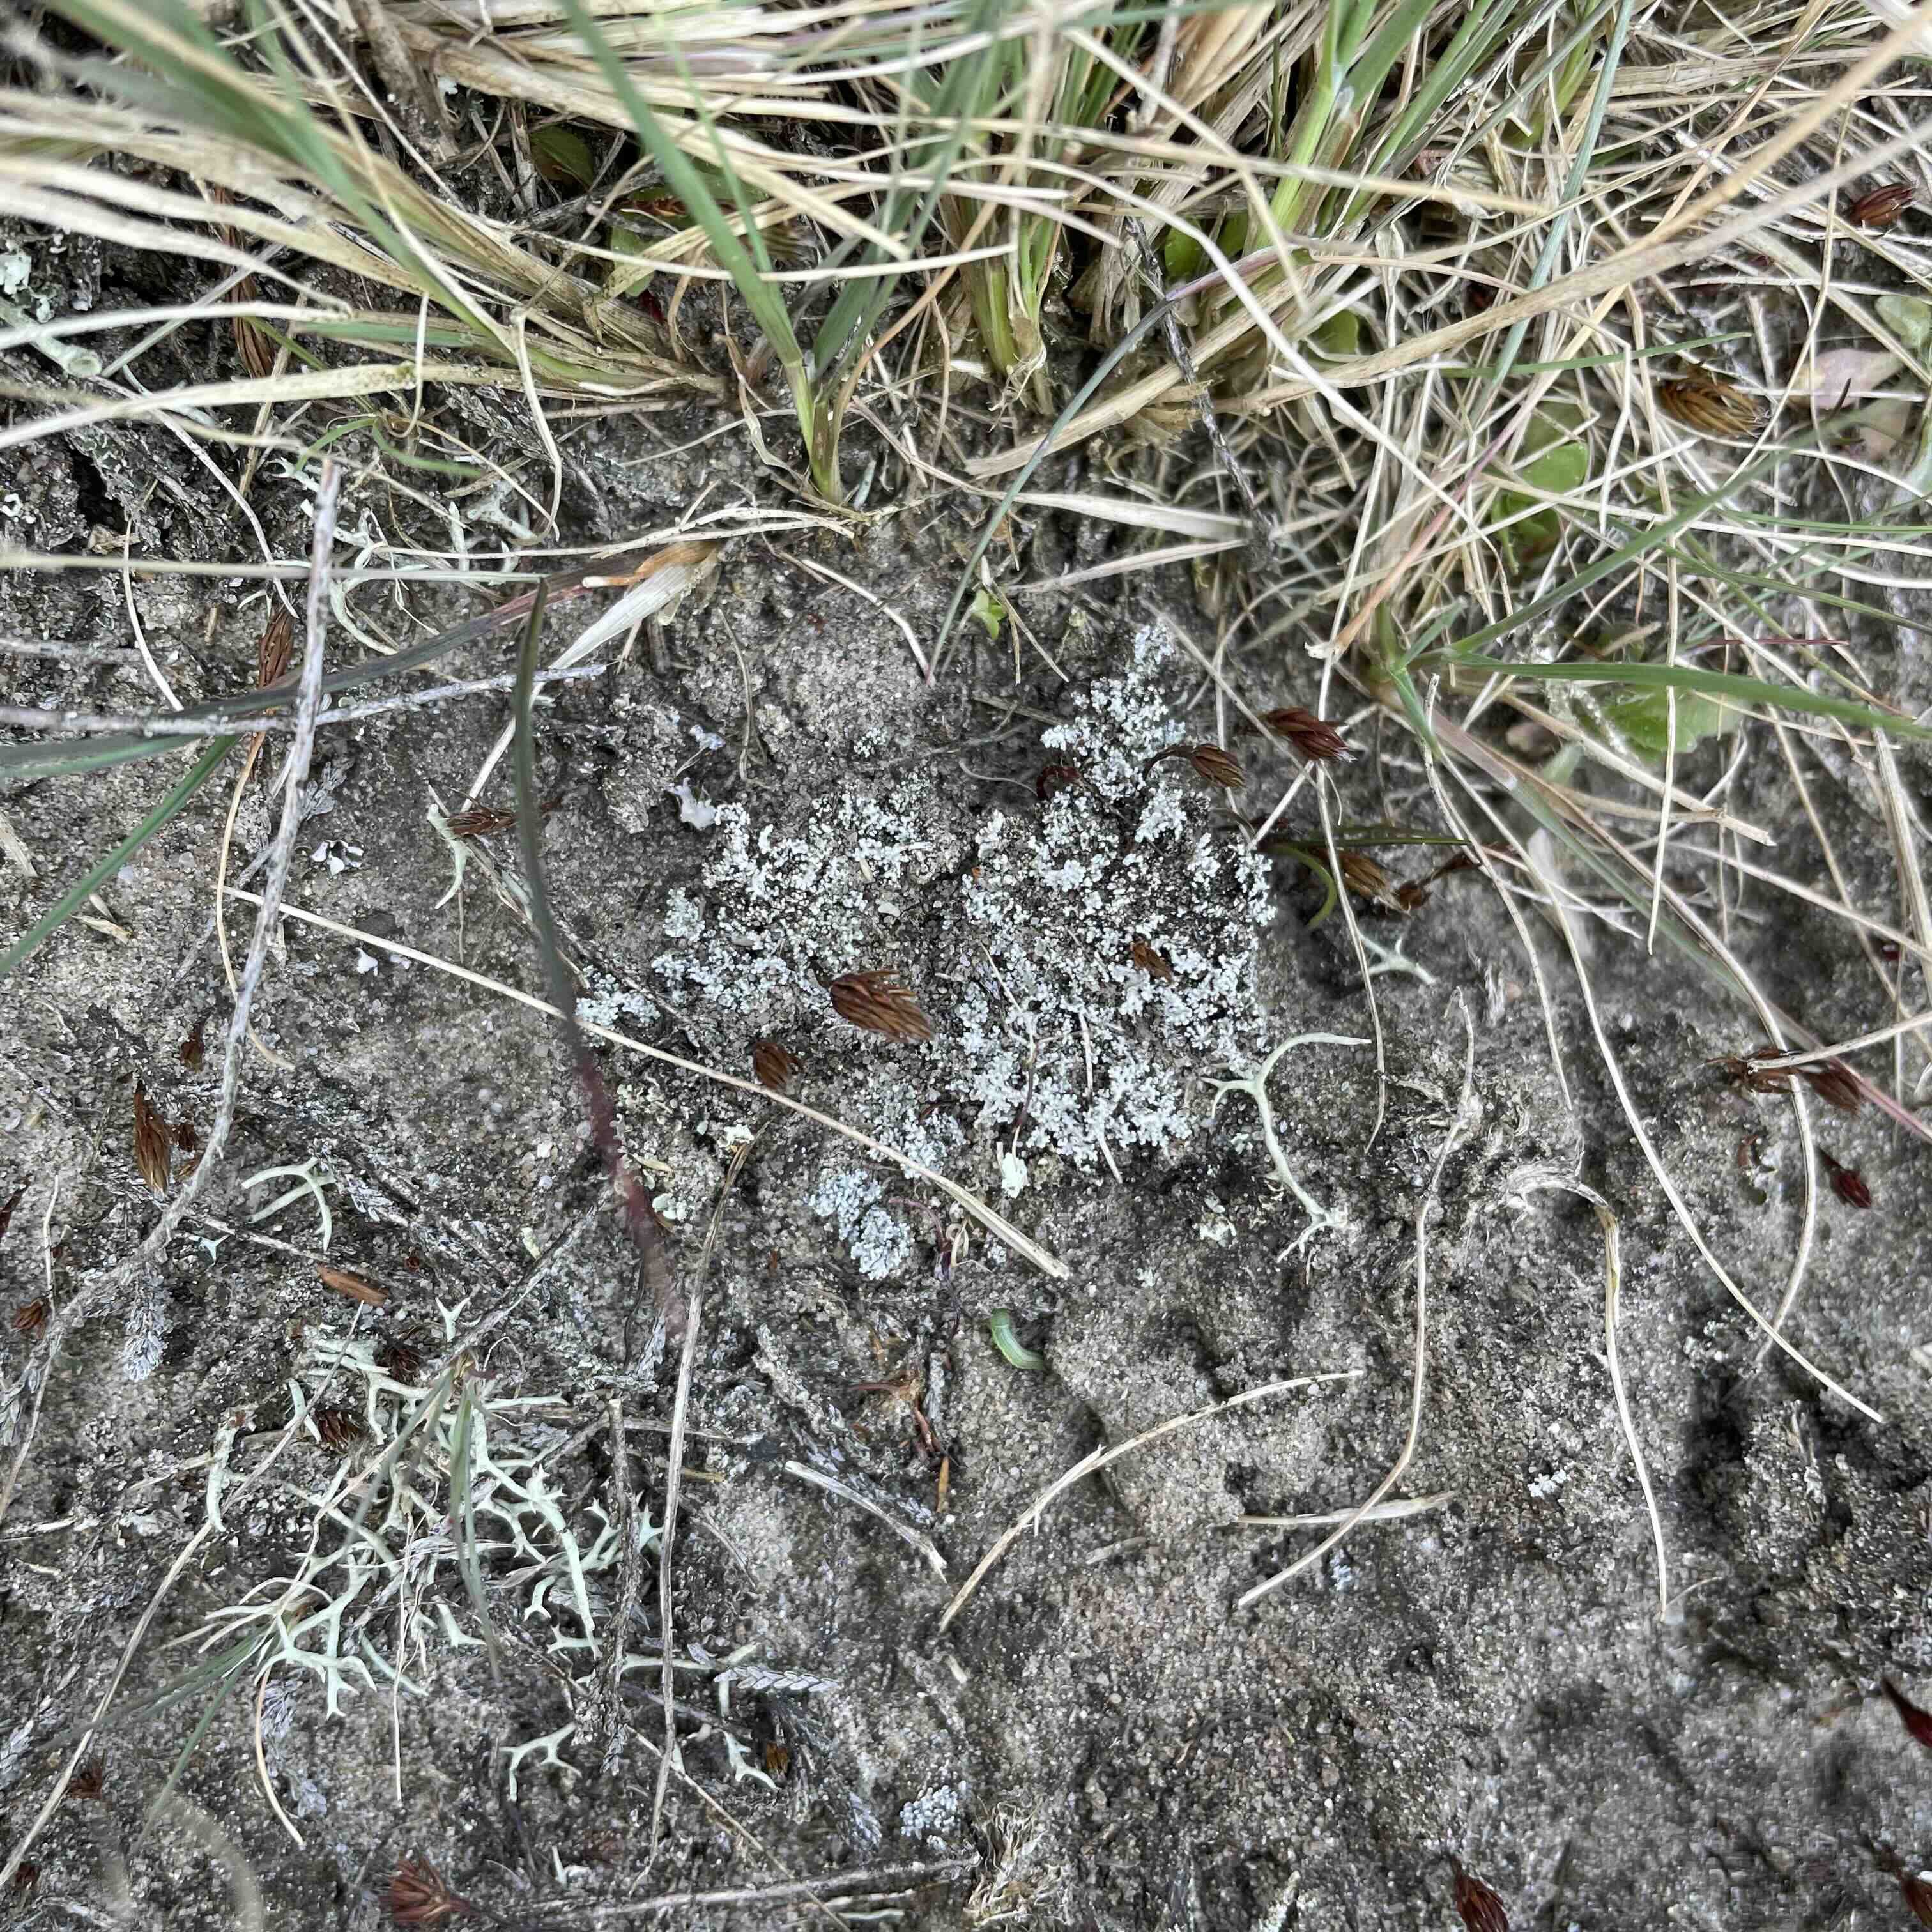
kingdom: Fungi
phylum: Ascomycota
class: Lecanoromycetes
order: Lecanorales
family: Stereocaulaceae
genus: Stereocaulon
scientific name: Stereocaulon condensatum
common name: lav korallav
